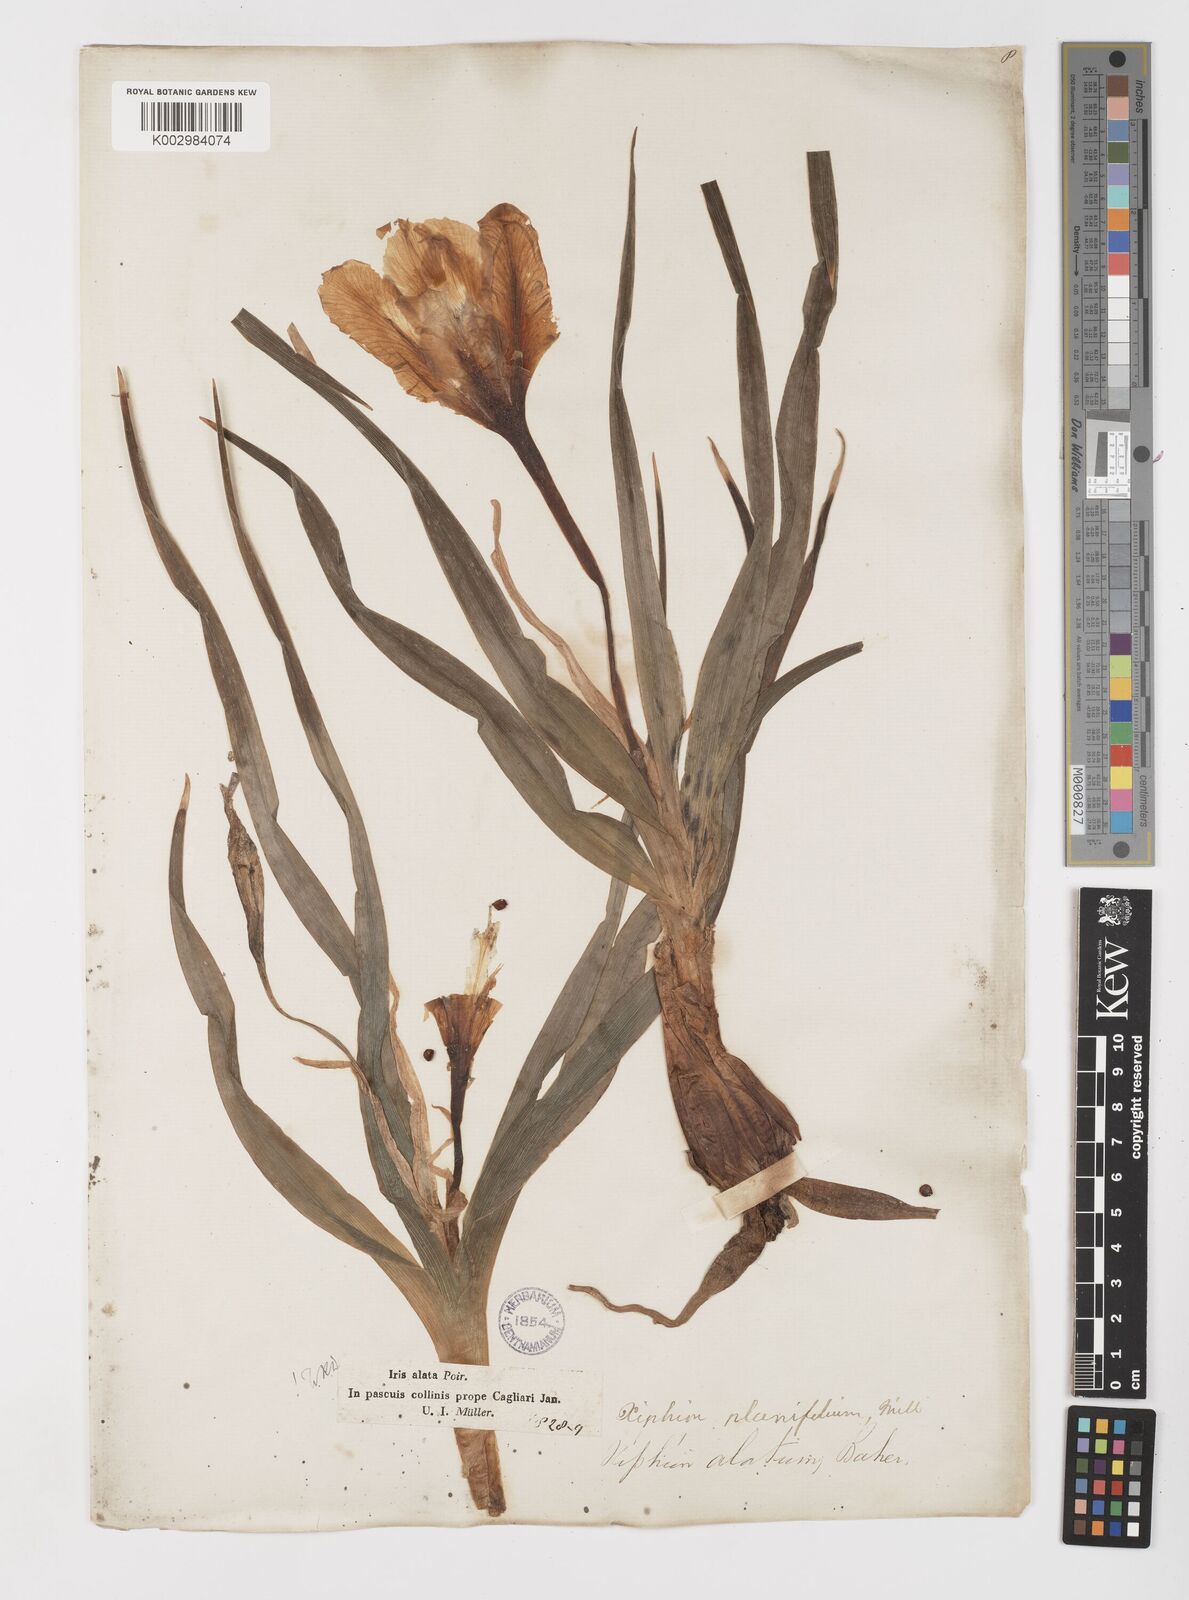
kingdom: Plantae
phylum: Tracheophyta
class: Liliopsida
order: Asparagales
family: Iridaceae
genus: Iris
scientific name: Iris planifolia
